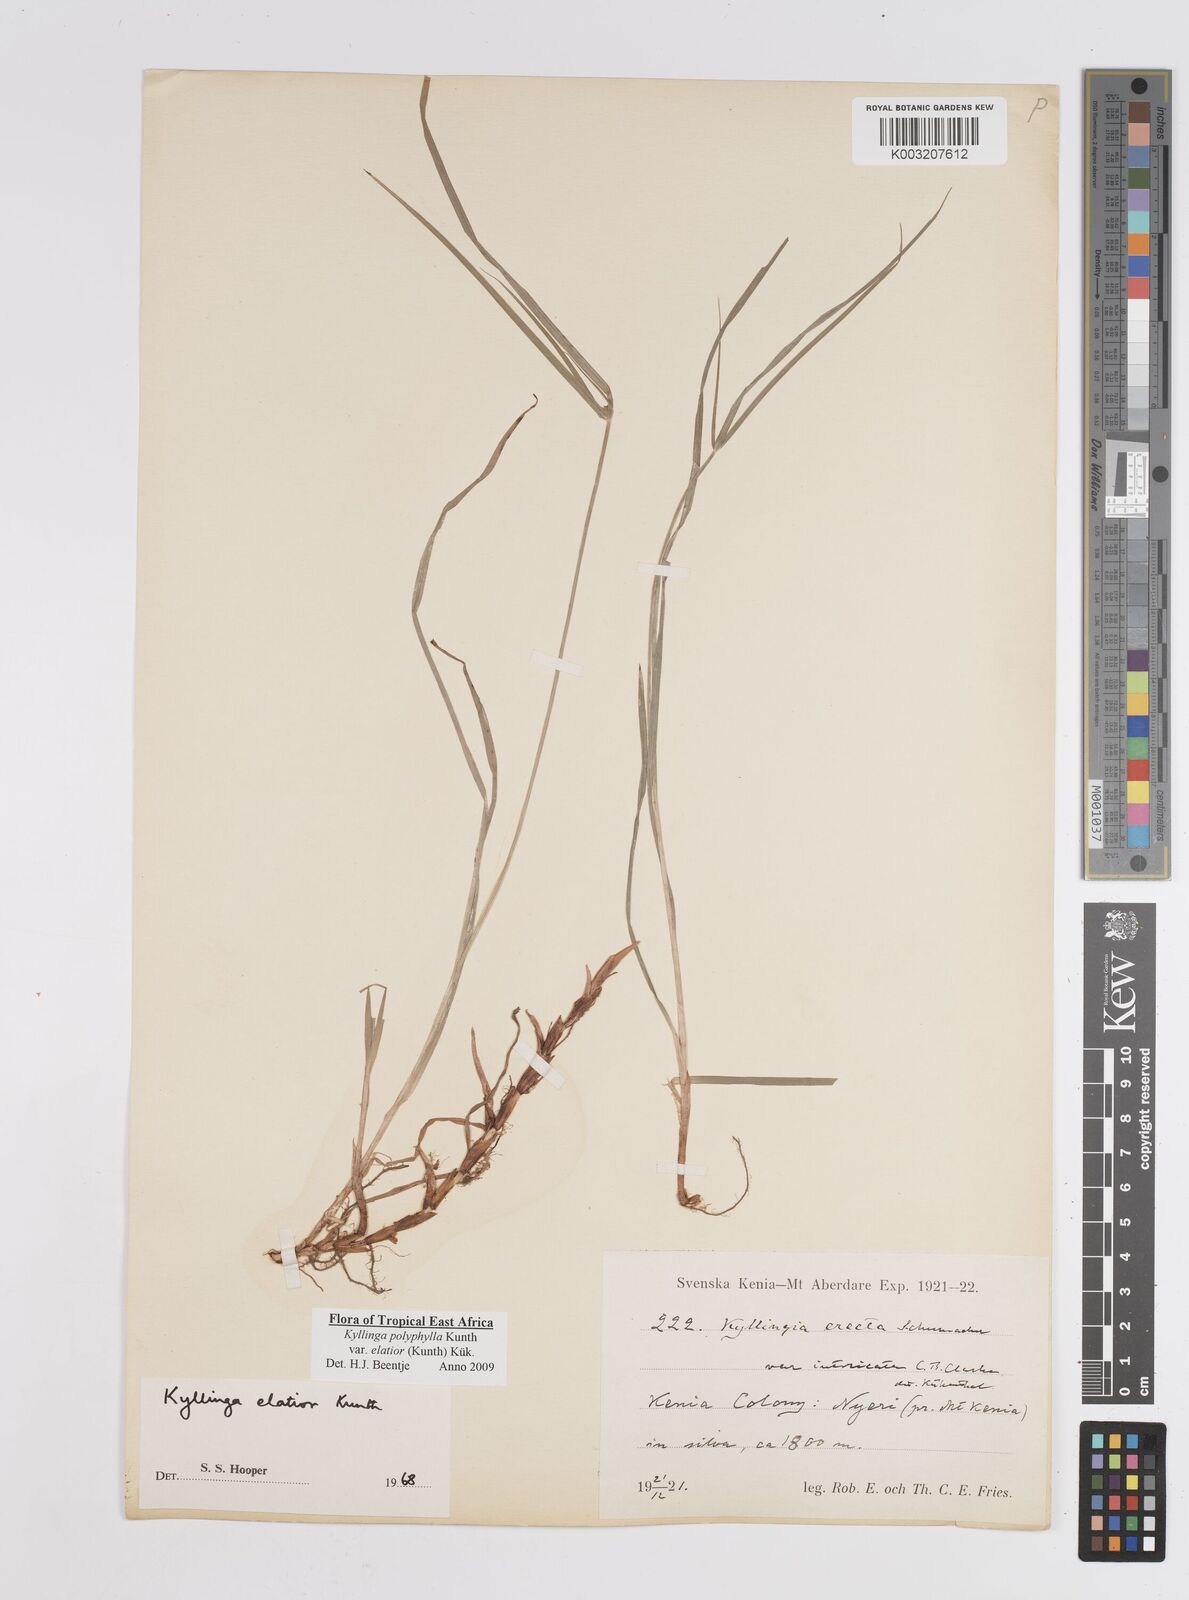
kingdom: Plantae
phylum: Tracheophyta
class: Liliopsida
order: Poales
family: Cyperaceae
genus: Cyperus
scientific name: Cyperus
